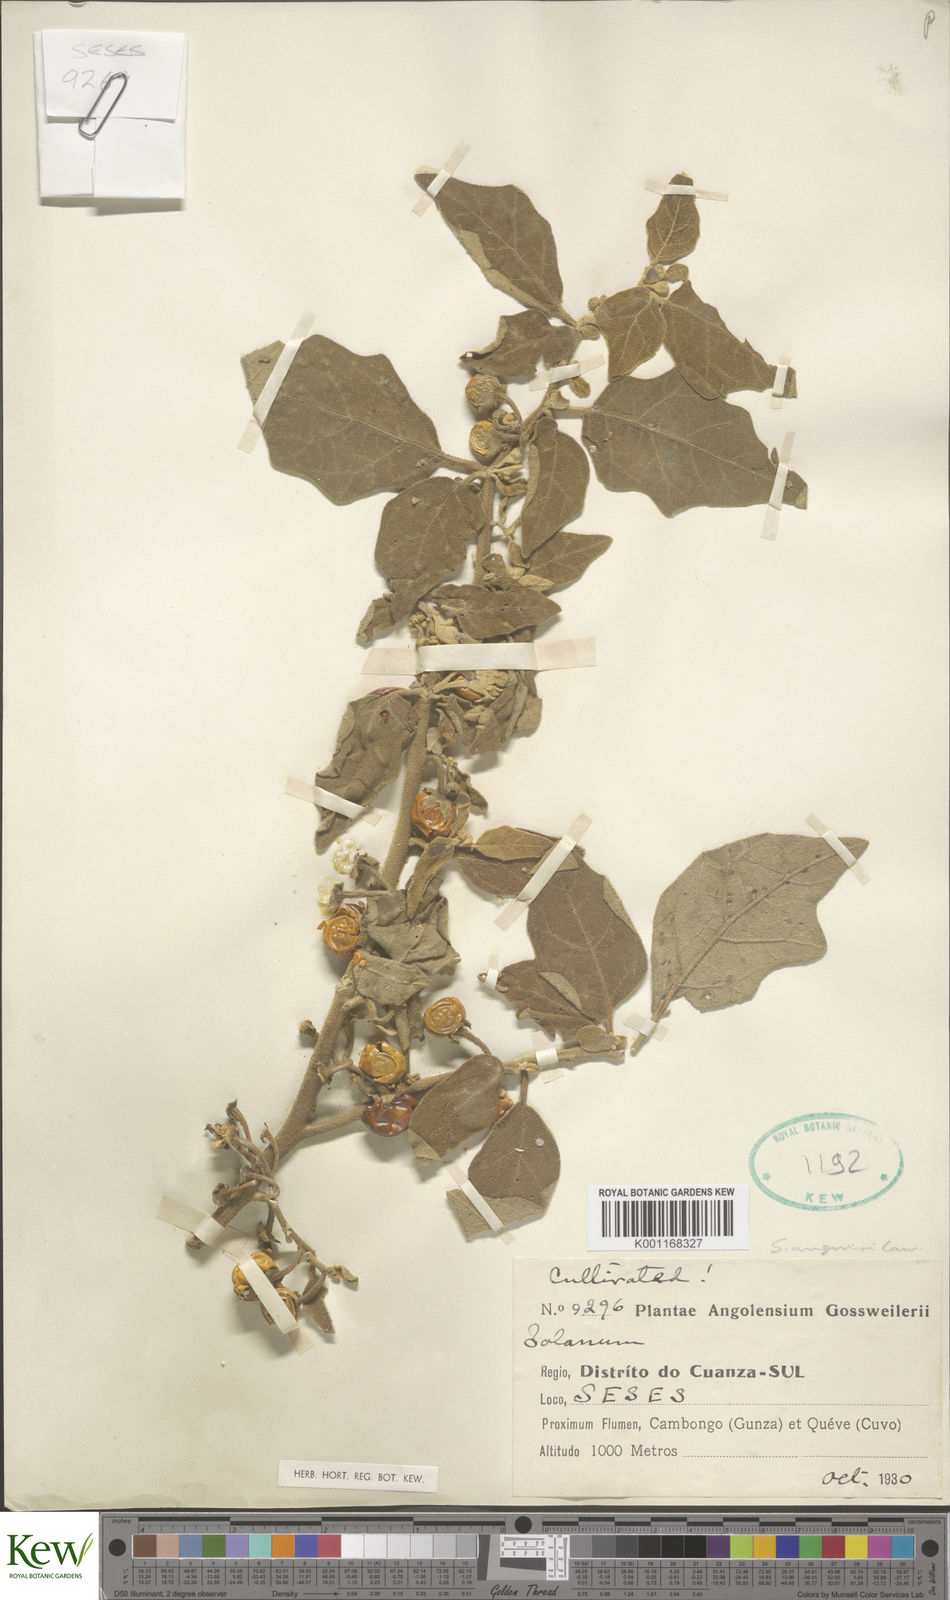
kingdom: Plantae
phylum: Tracheophyta
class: Magnoliopsida
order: Solanales
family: Solanaceae
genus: Solanum
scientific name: Solanum anguivi
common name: Forest bitterberry
